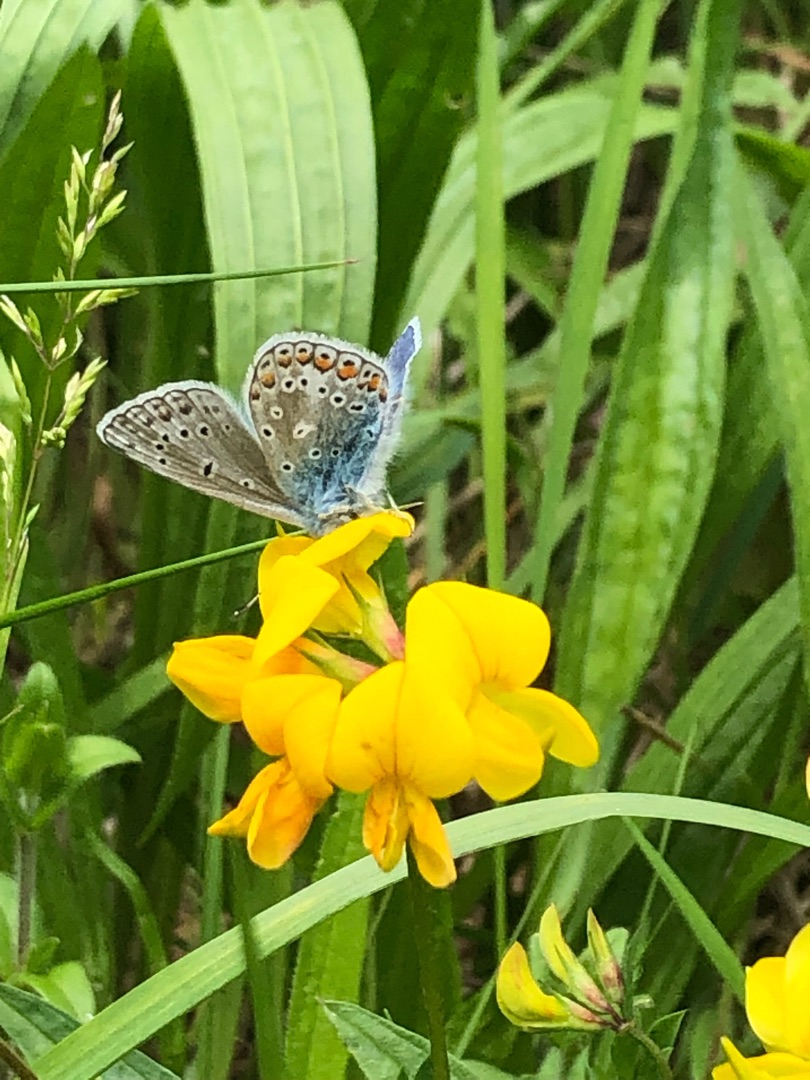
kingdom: Animalia
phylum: Arthropoda
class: Insecta
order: Lepidoptera
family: Lycaenidae
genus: Polyommatus
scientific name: Polyommatus icarus
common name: Almindelig blåfugl
